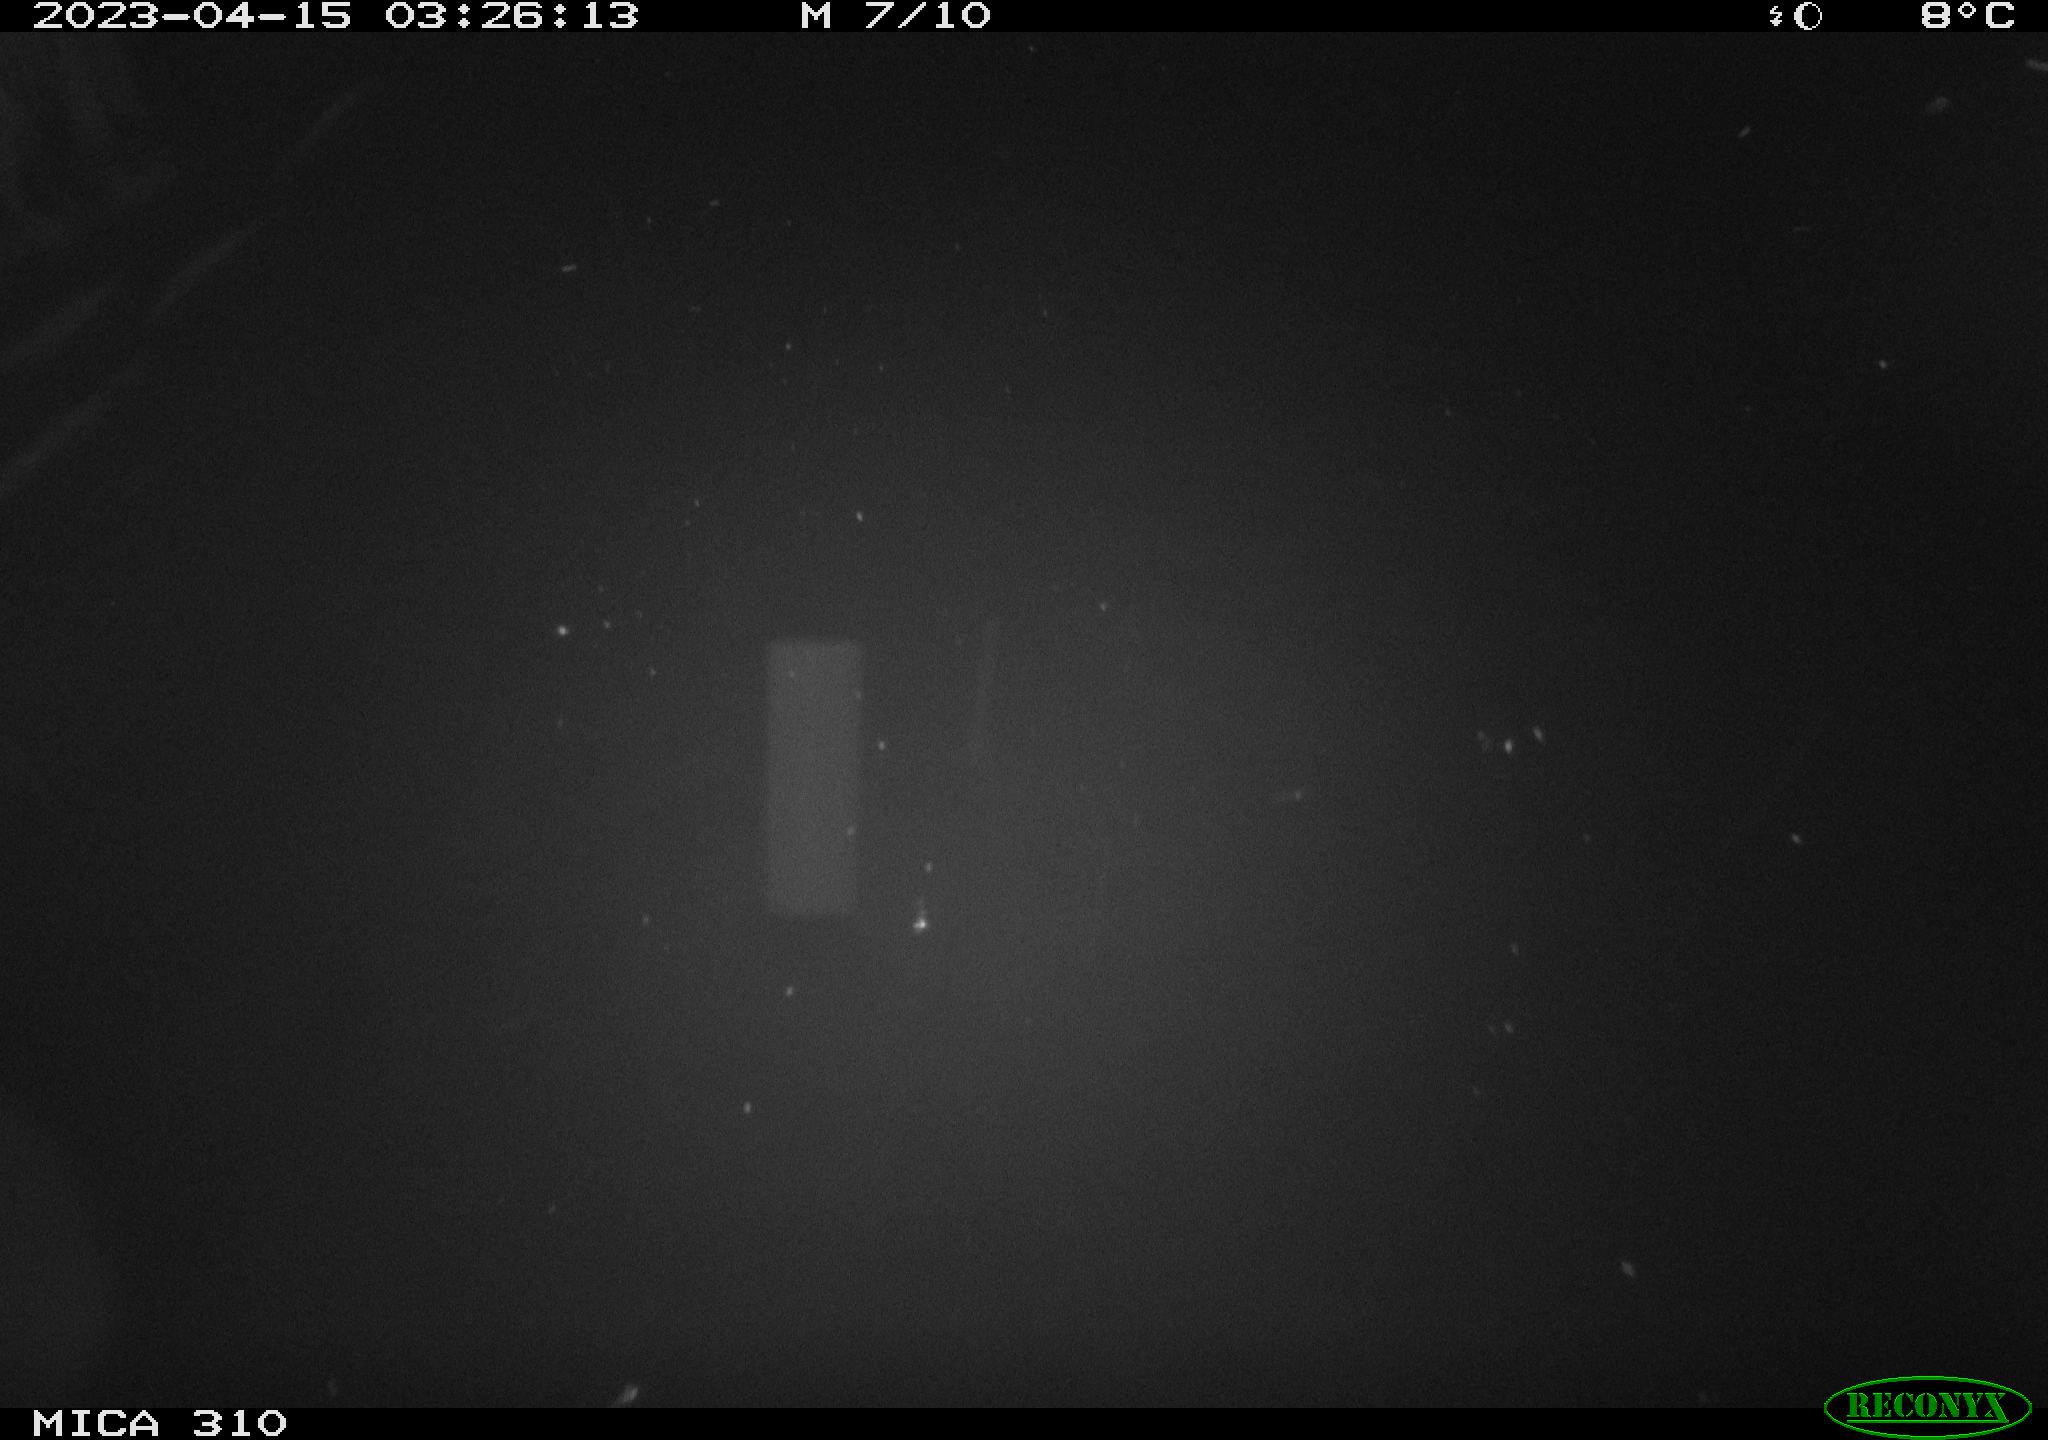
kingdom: Animalia
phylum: Chordata
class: Mammalia
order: Rodentia
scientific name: Rodentia
